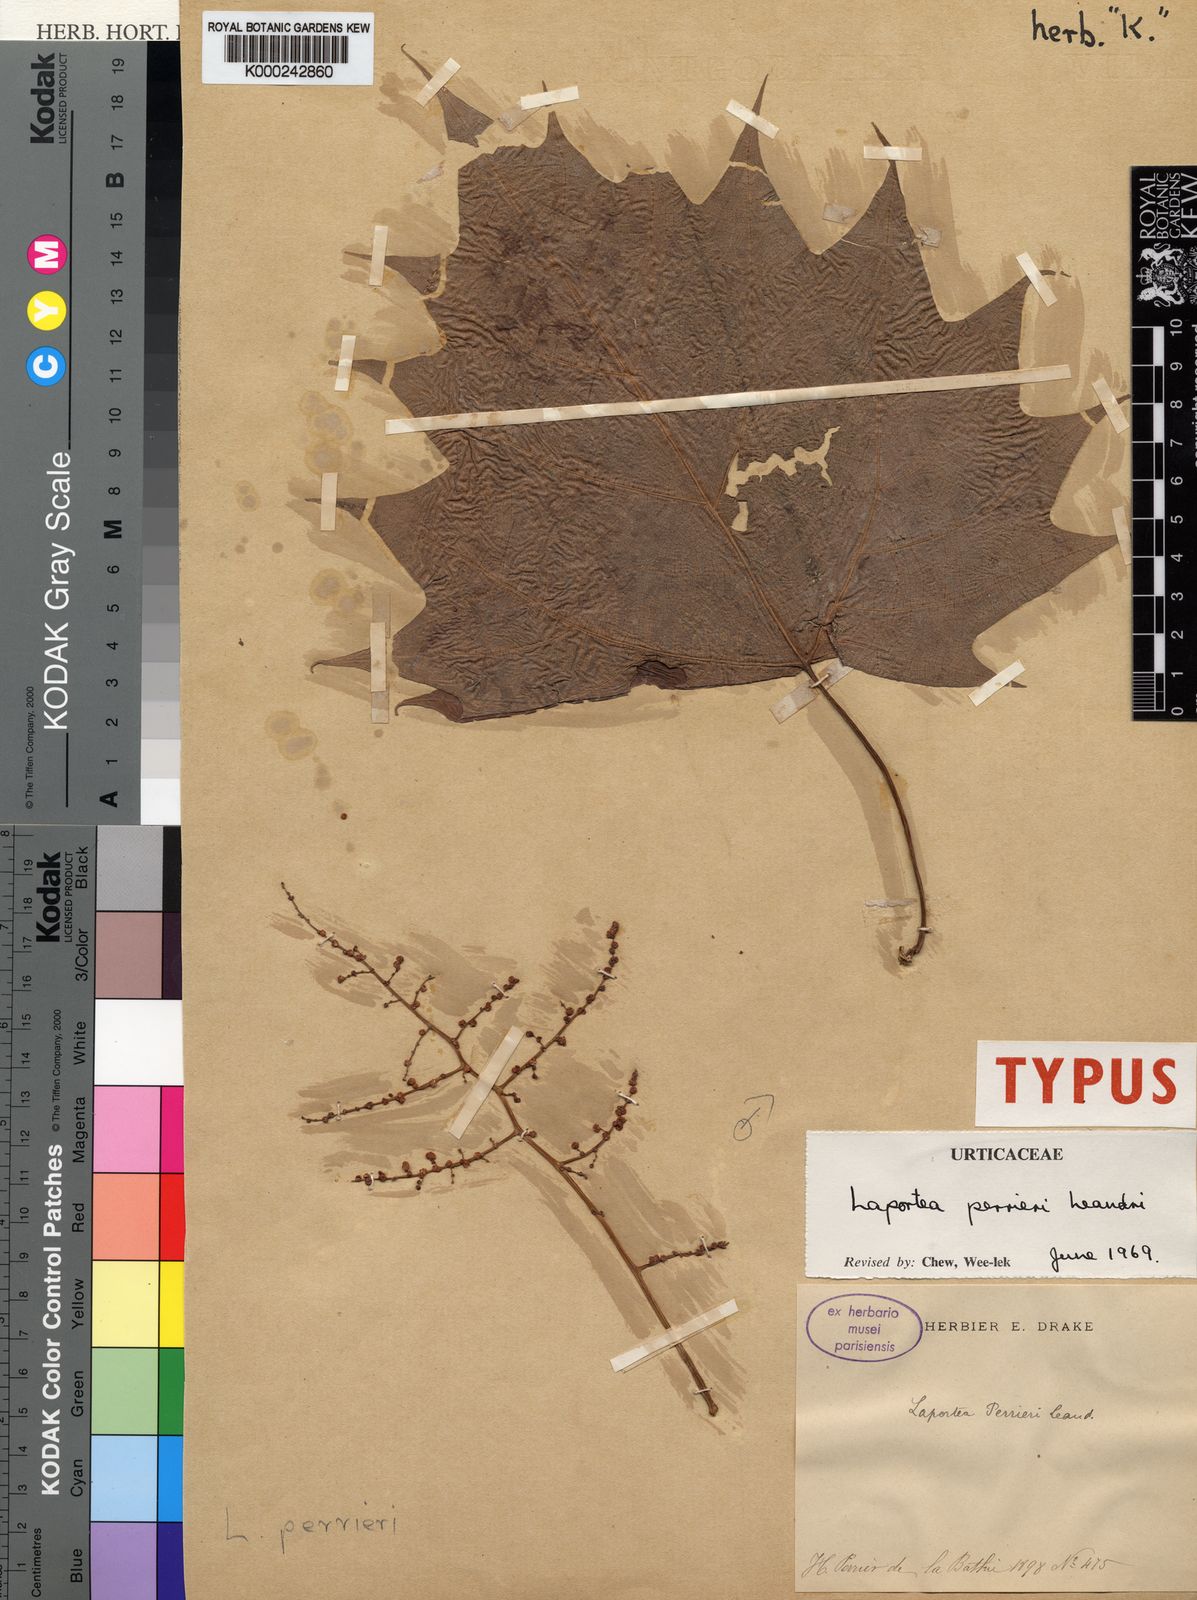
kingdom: Plantae
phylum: Tracheophyta
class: Magnoliopsida
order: Rosales
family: Urticaceae
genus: Laportea
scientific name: Laportea perrieri
